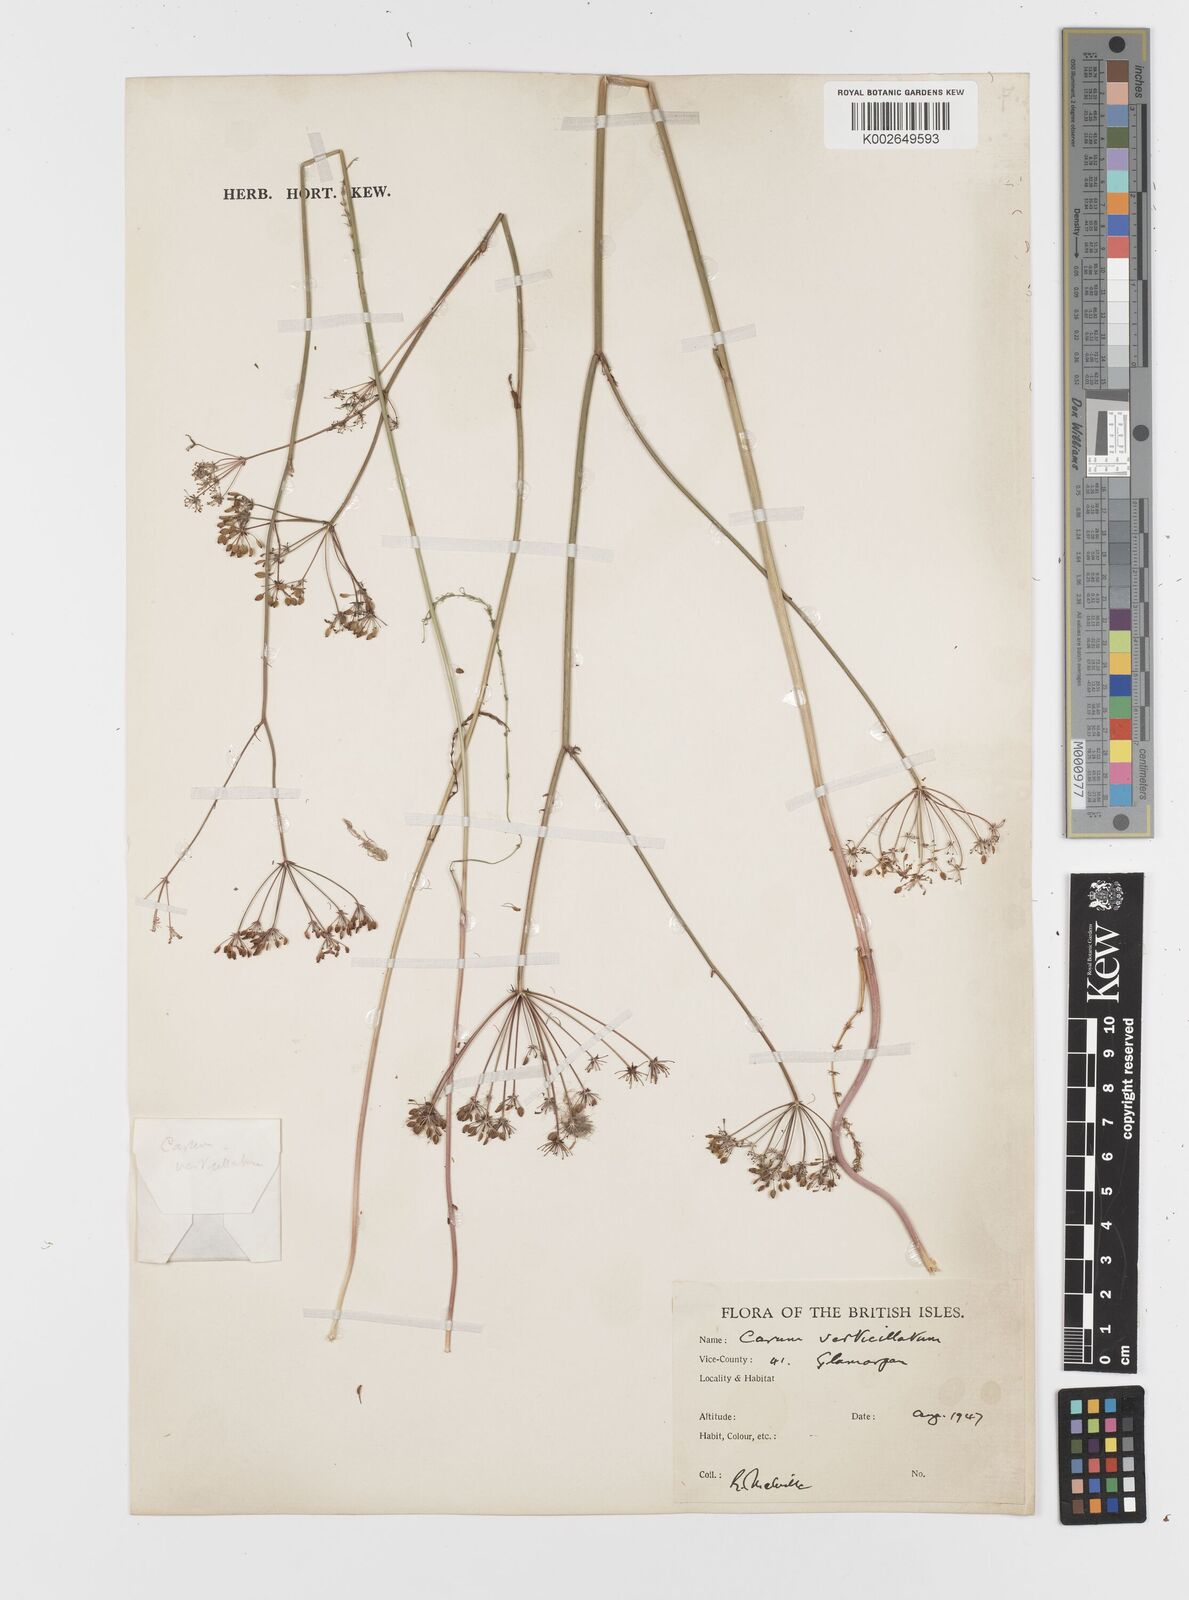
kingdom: Plantae
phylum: Tracheophyta
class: Magnoliopsida
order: Apiales
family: Apiaceae
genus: Trocdaris
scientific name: Trocdaris verticillatum
